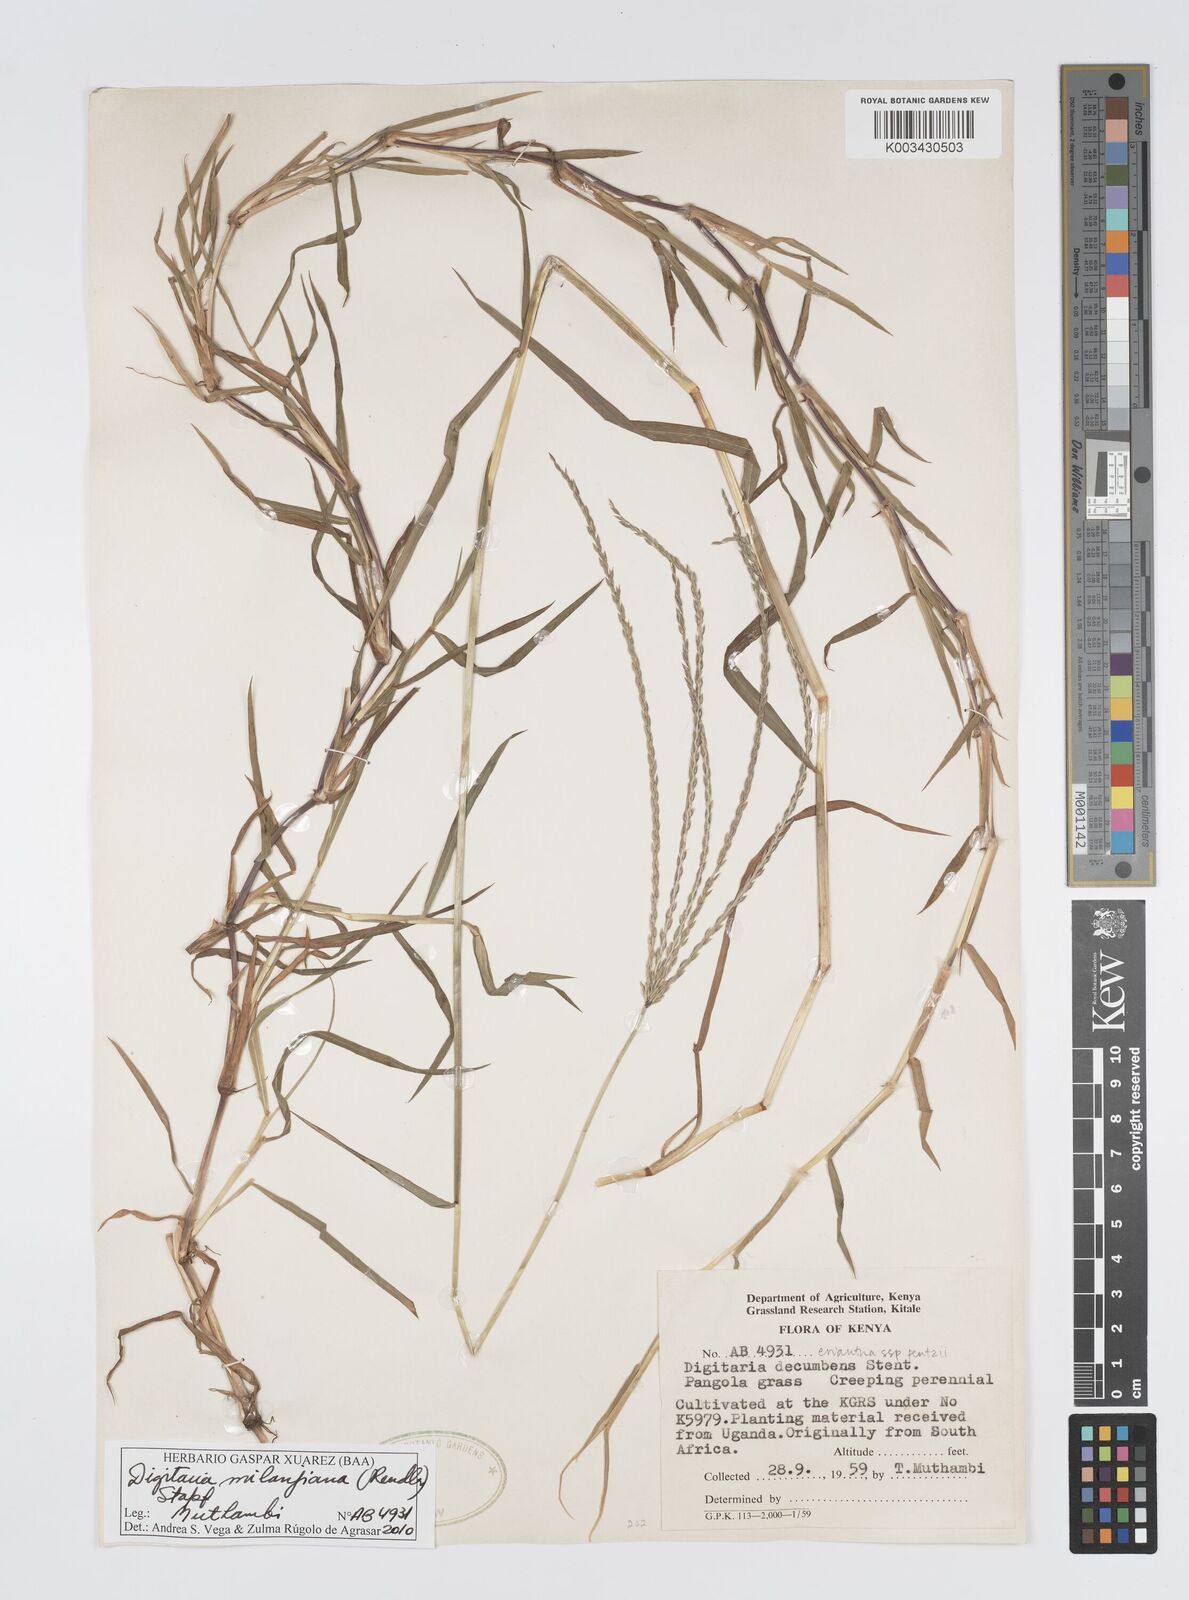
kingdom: Plantae
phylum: Tracheophyta
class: Liliopsida
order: Poales
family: Poaceae
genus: Digitaria
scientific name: Digitaria milanjiana
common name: Madagascar crabgrass
